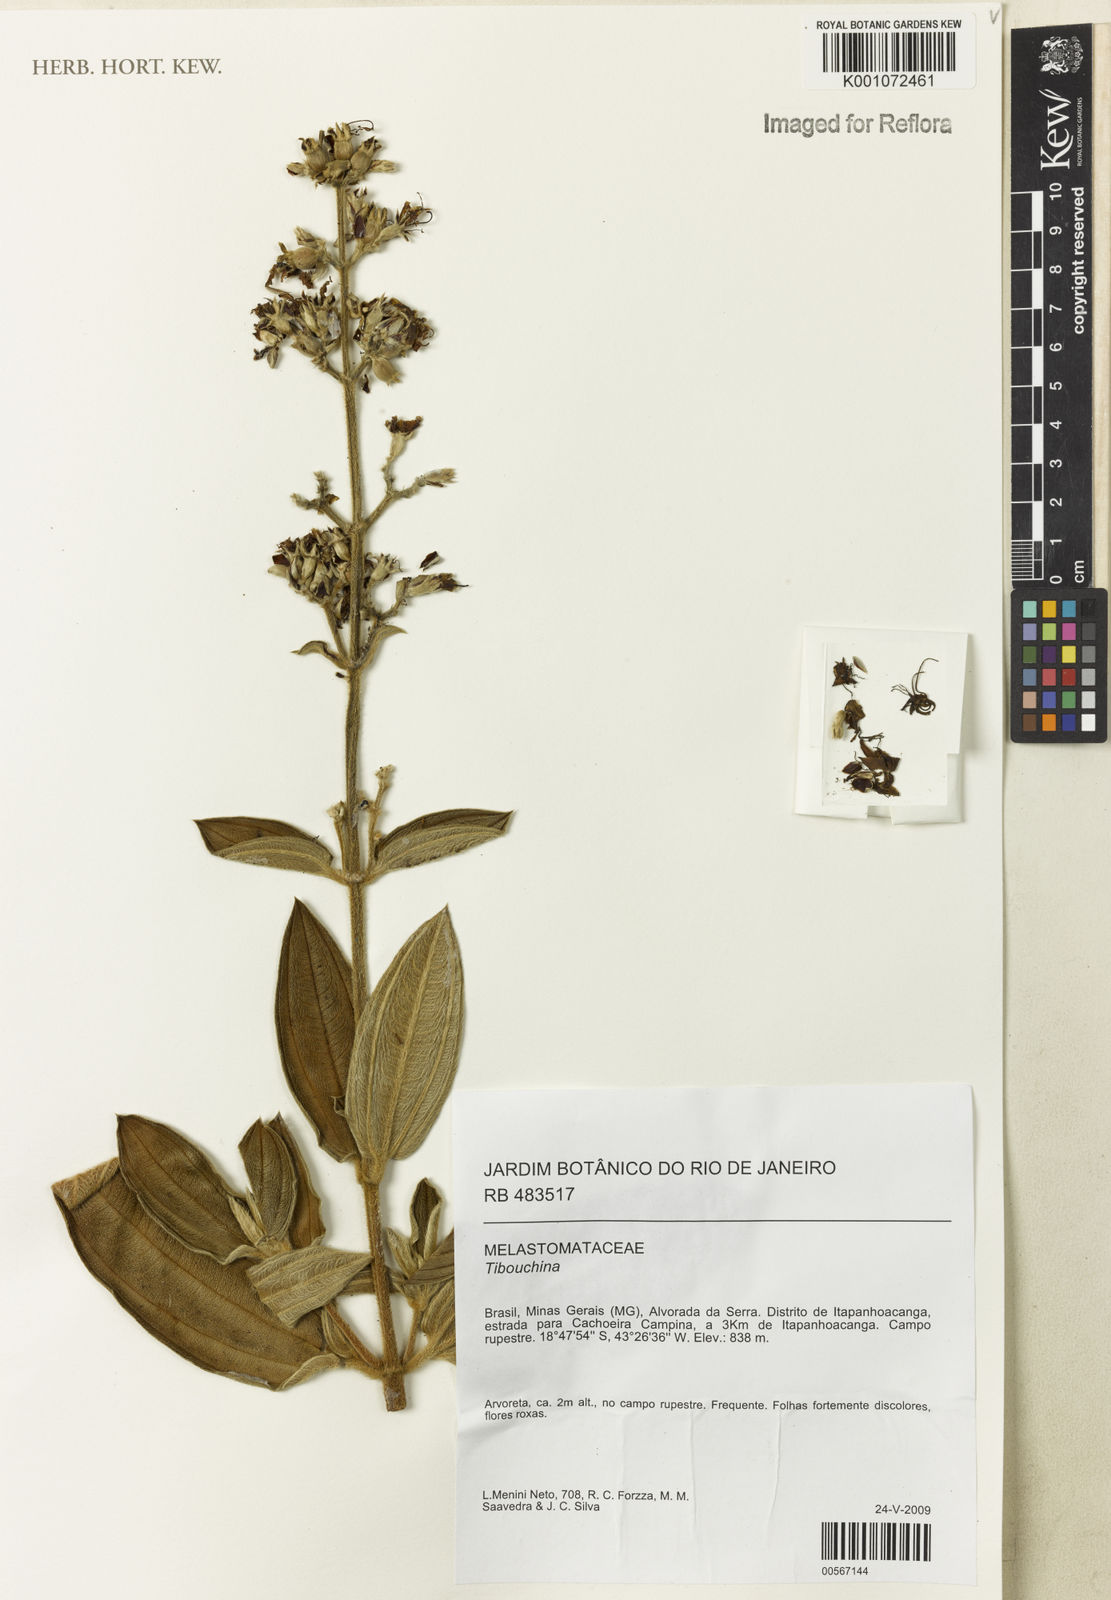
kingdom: Plantae
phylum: Tracheophyta
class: Magnoliopsida
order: Myrtales
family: Melastomataceae
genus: Tibouchina
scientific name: Tibouchina
